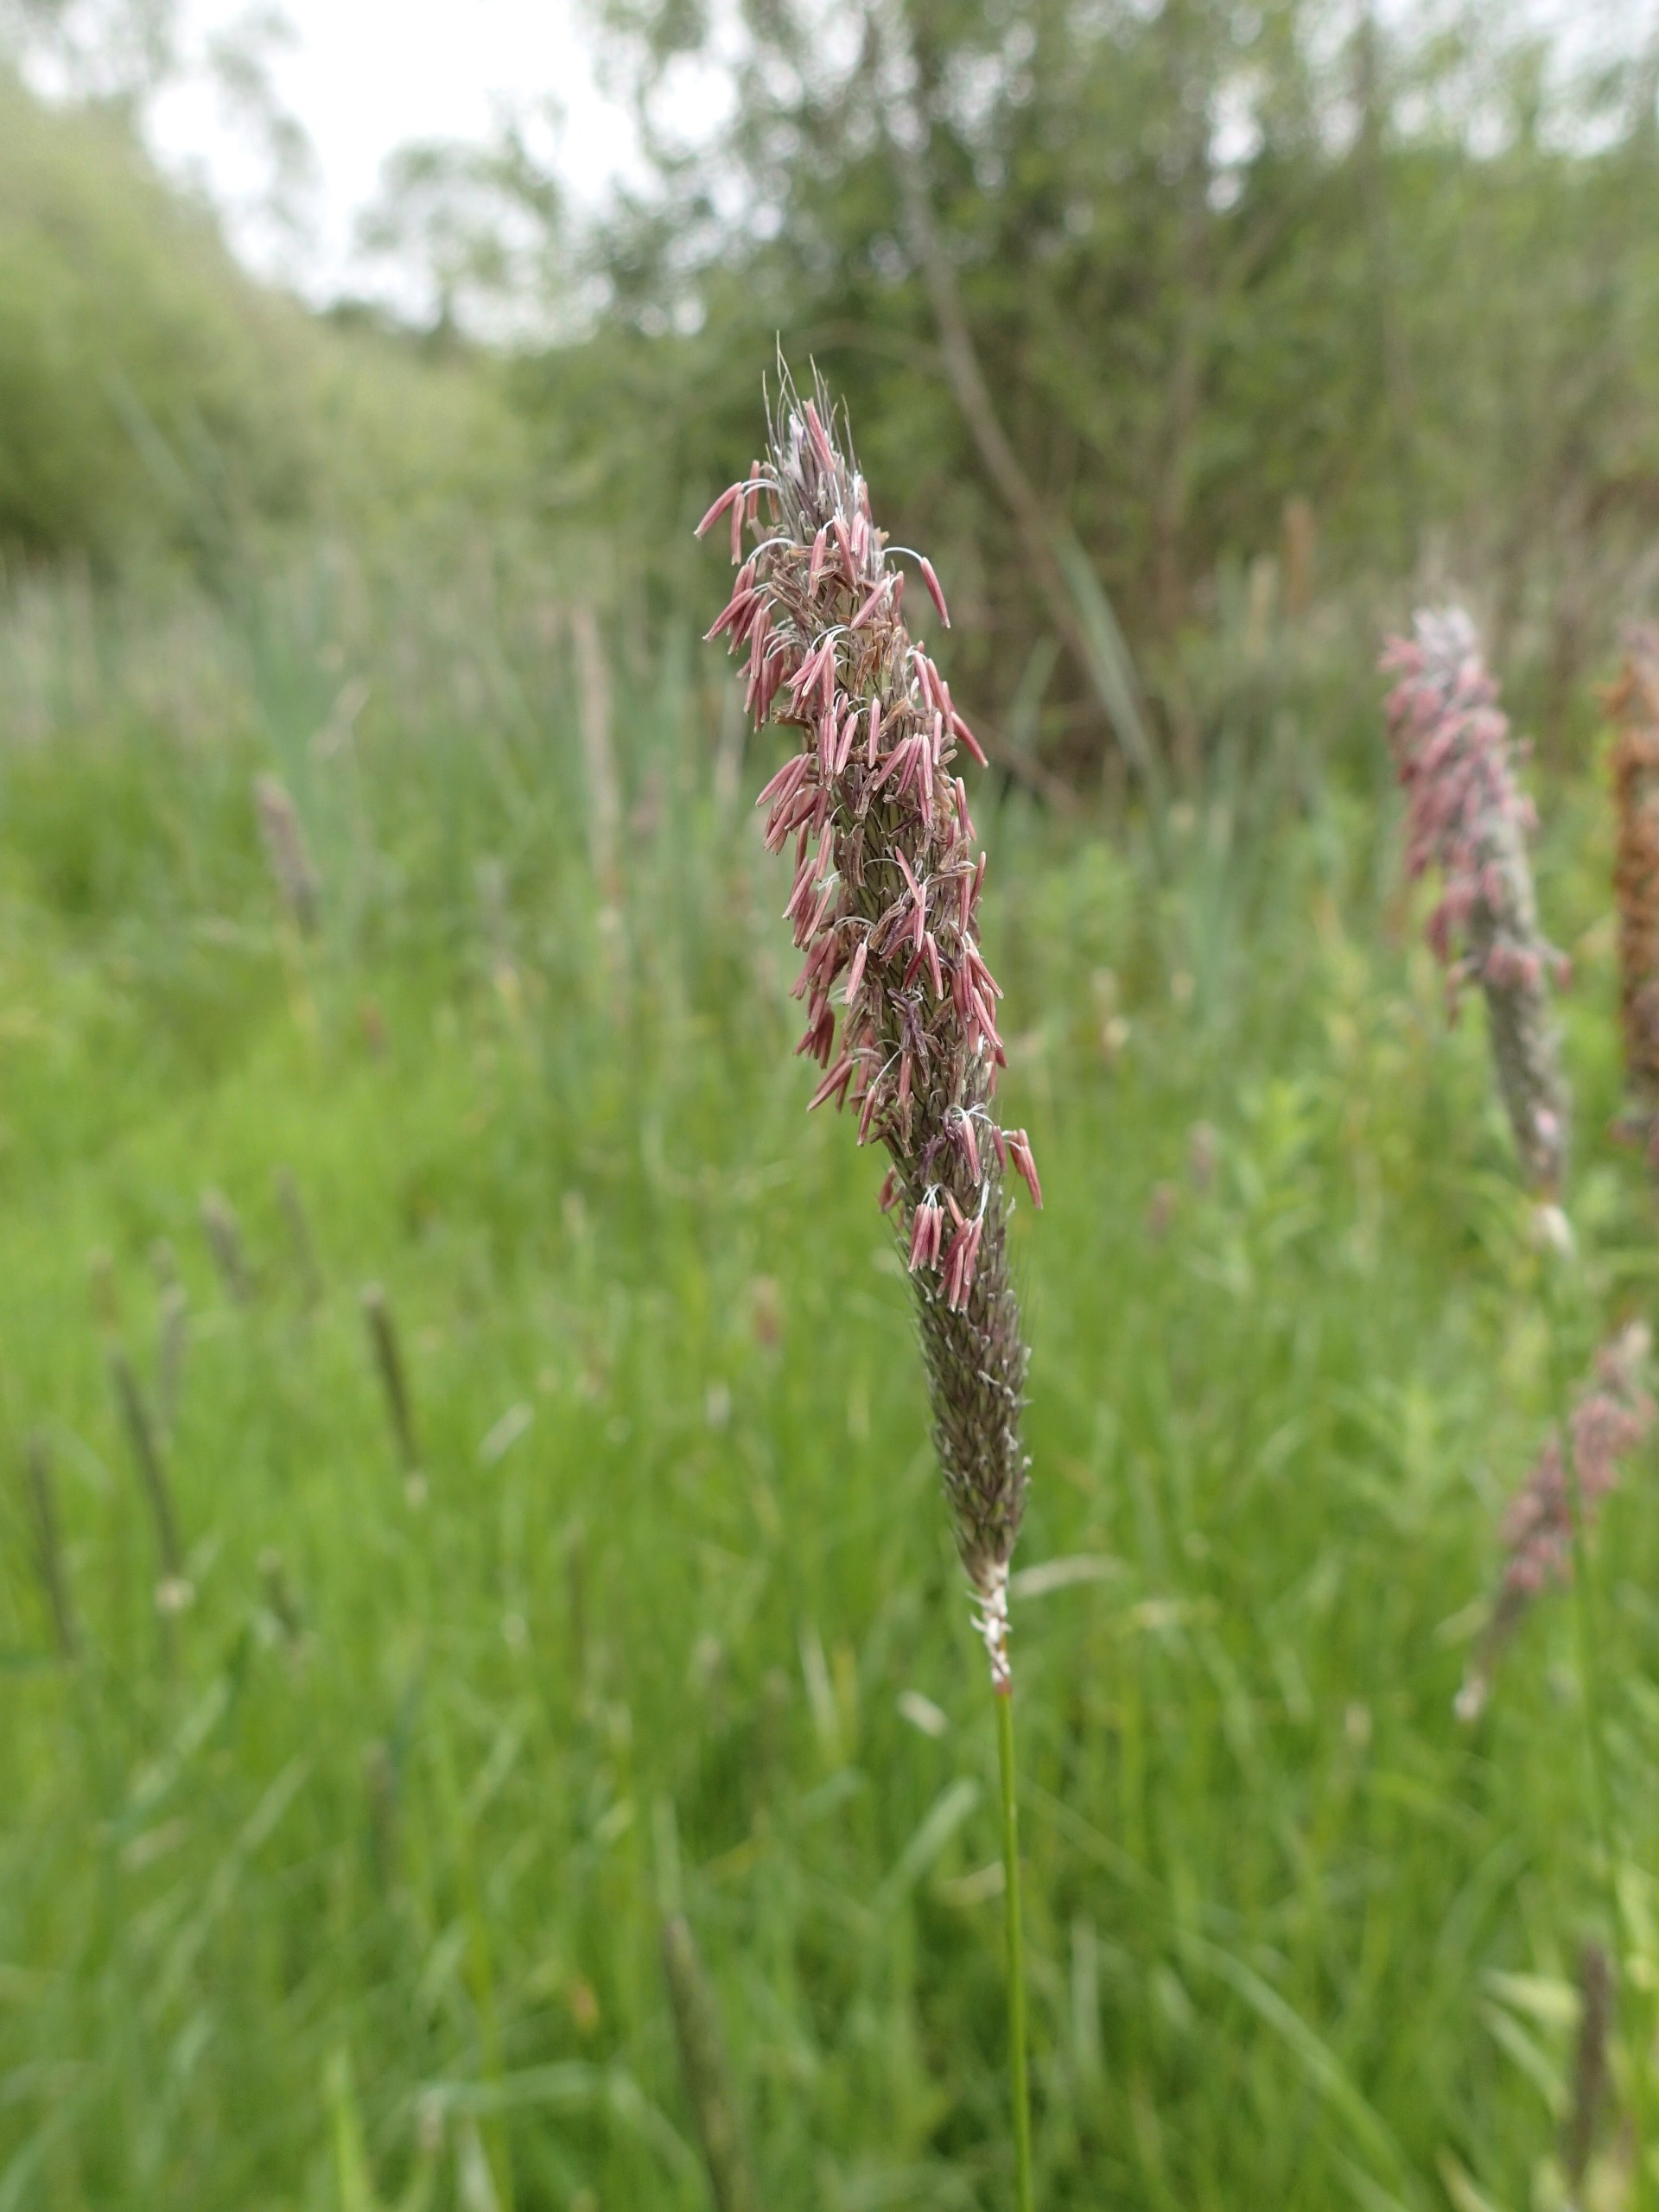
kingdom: Plantae
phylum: Tracheophyta
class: Liliopsida
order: Poales
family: Poaceae
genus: Alopecurus
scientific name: Alopecurus pratensis
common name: Eng-rævehale
